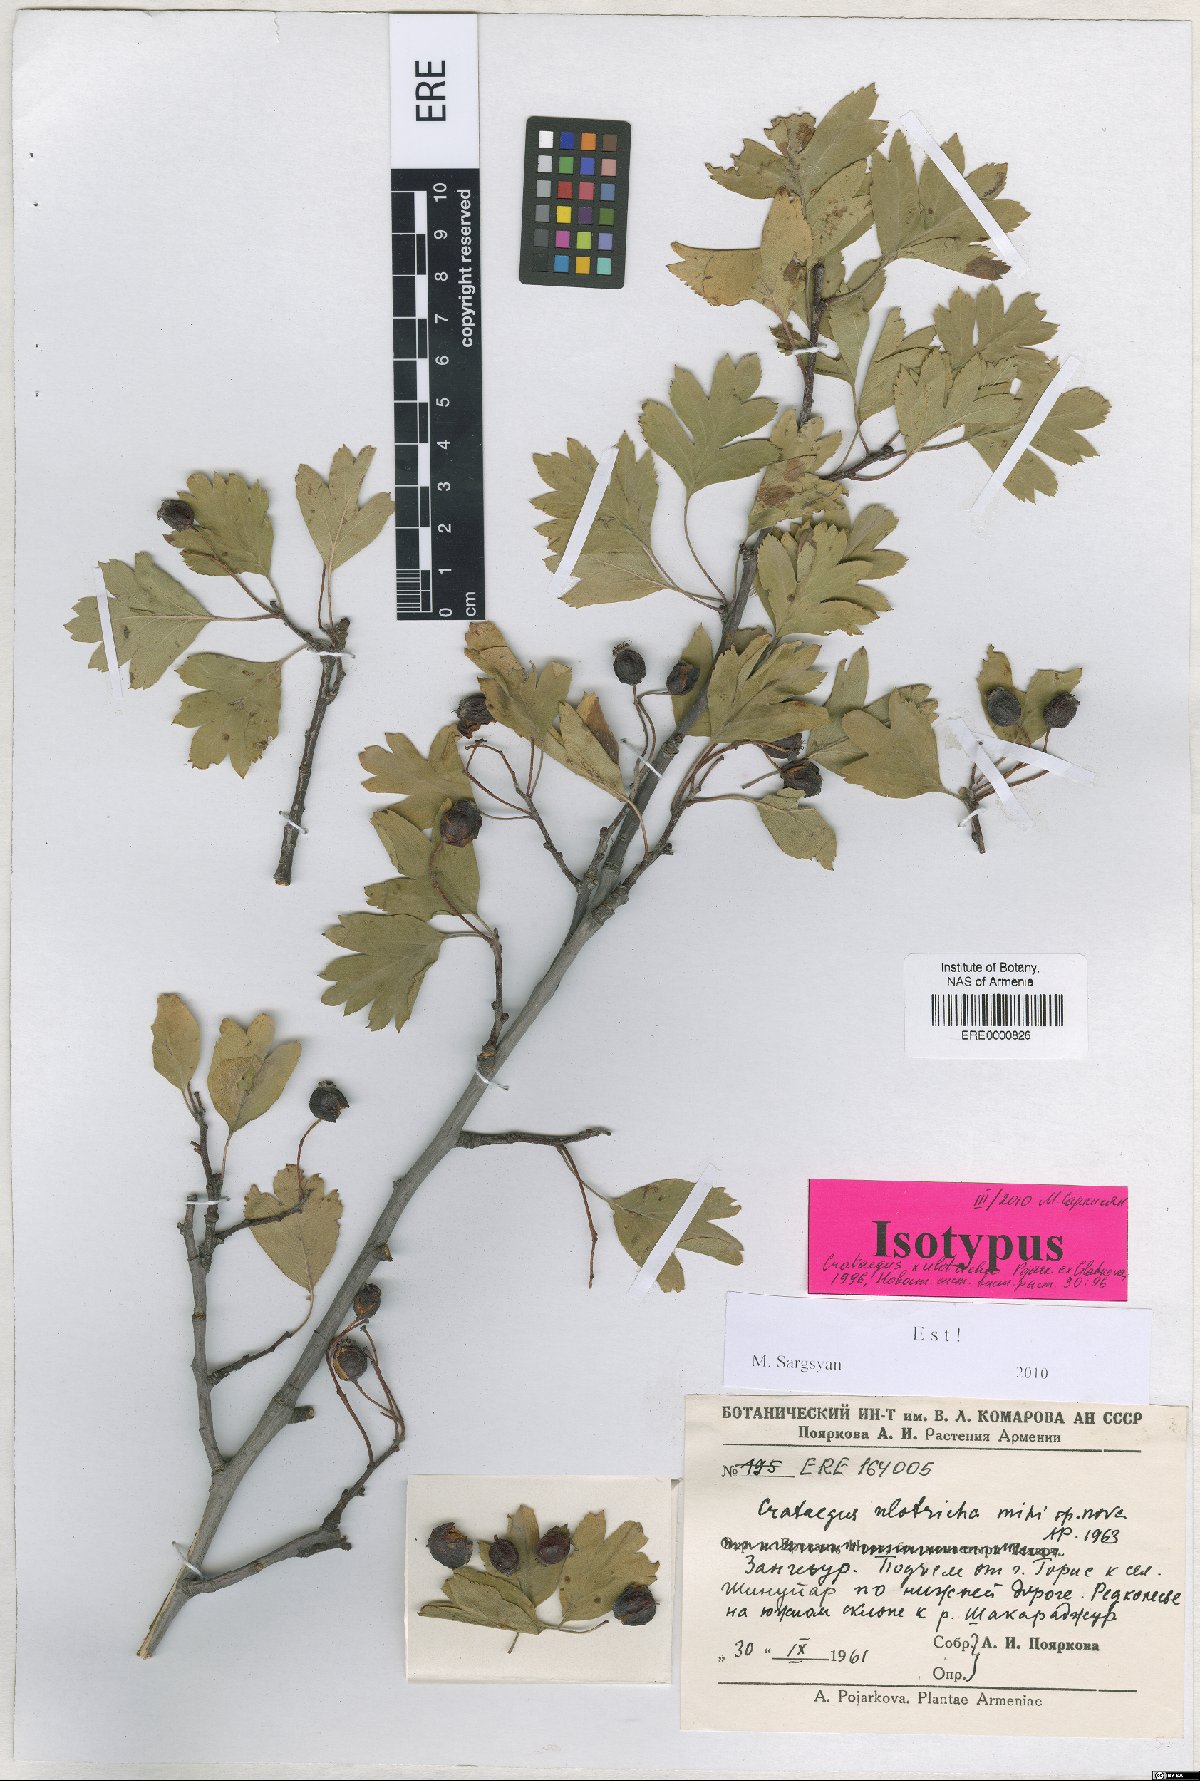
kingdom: Plantae
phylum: Tracheophyta
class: Magnoliopsida
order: Rosales
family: Rosaceae
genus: Crataegus
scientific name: Crataegus ulotricha
